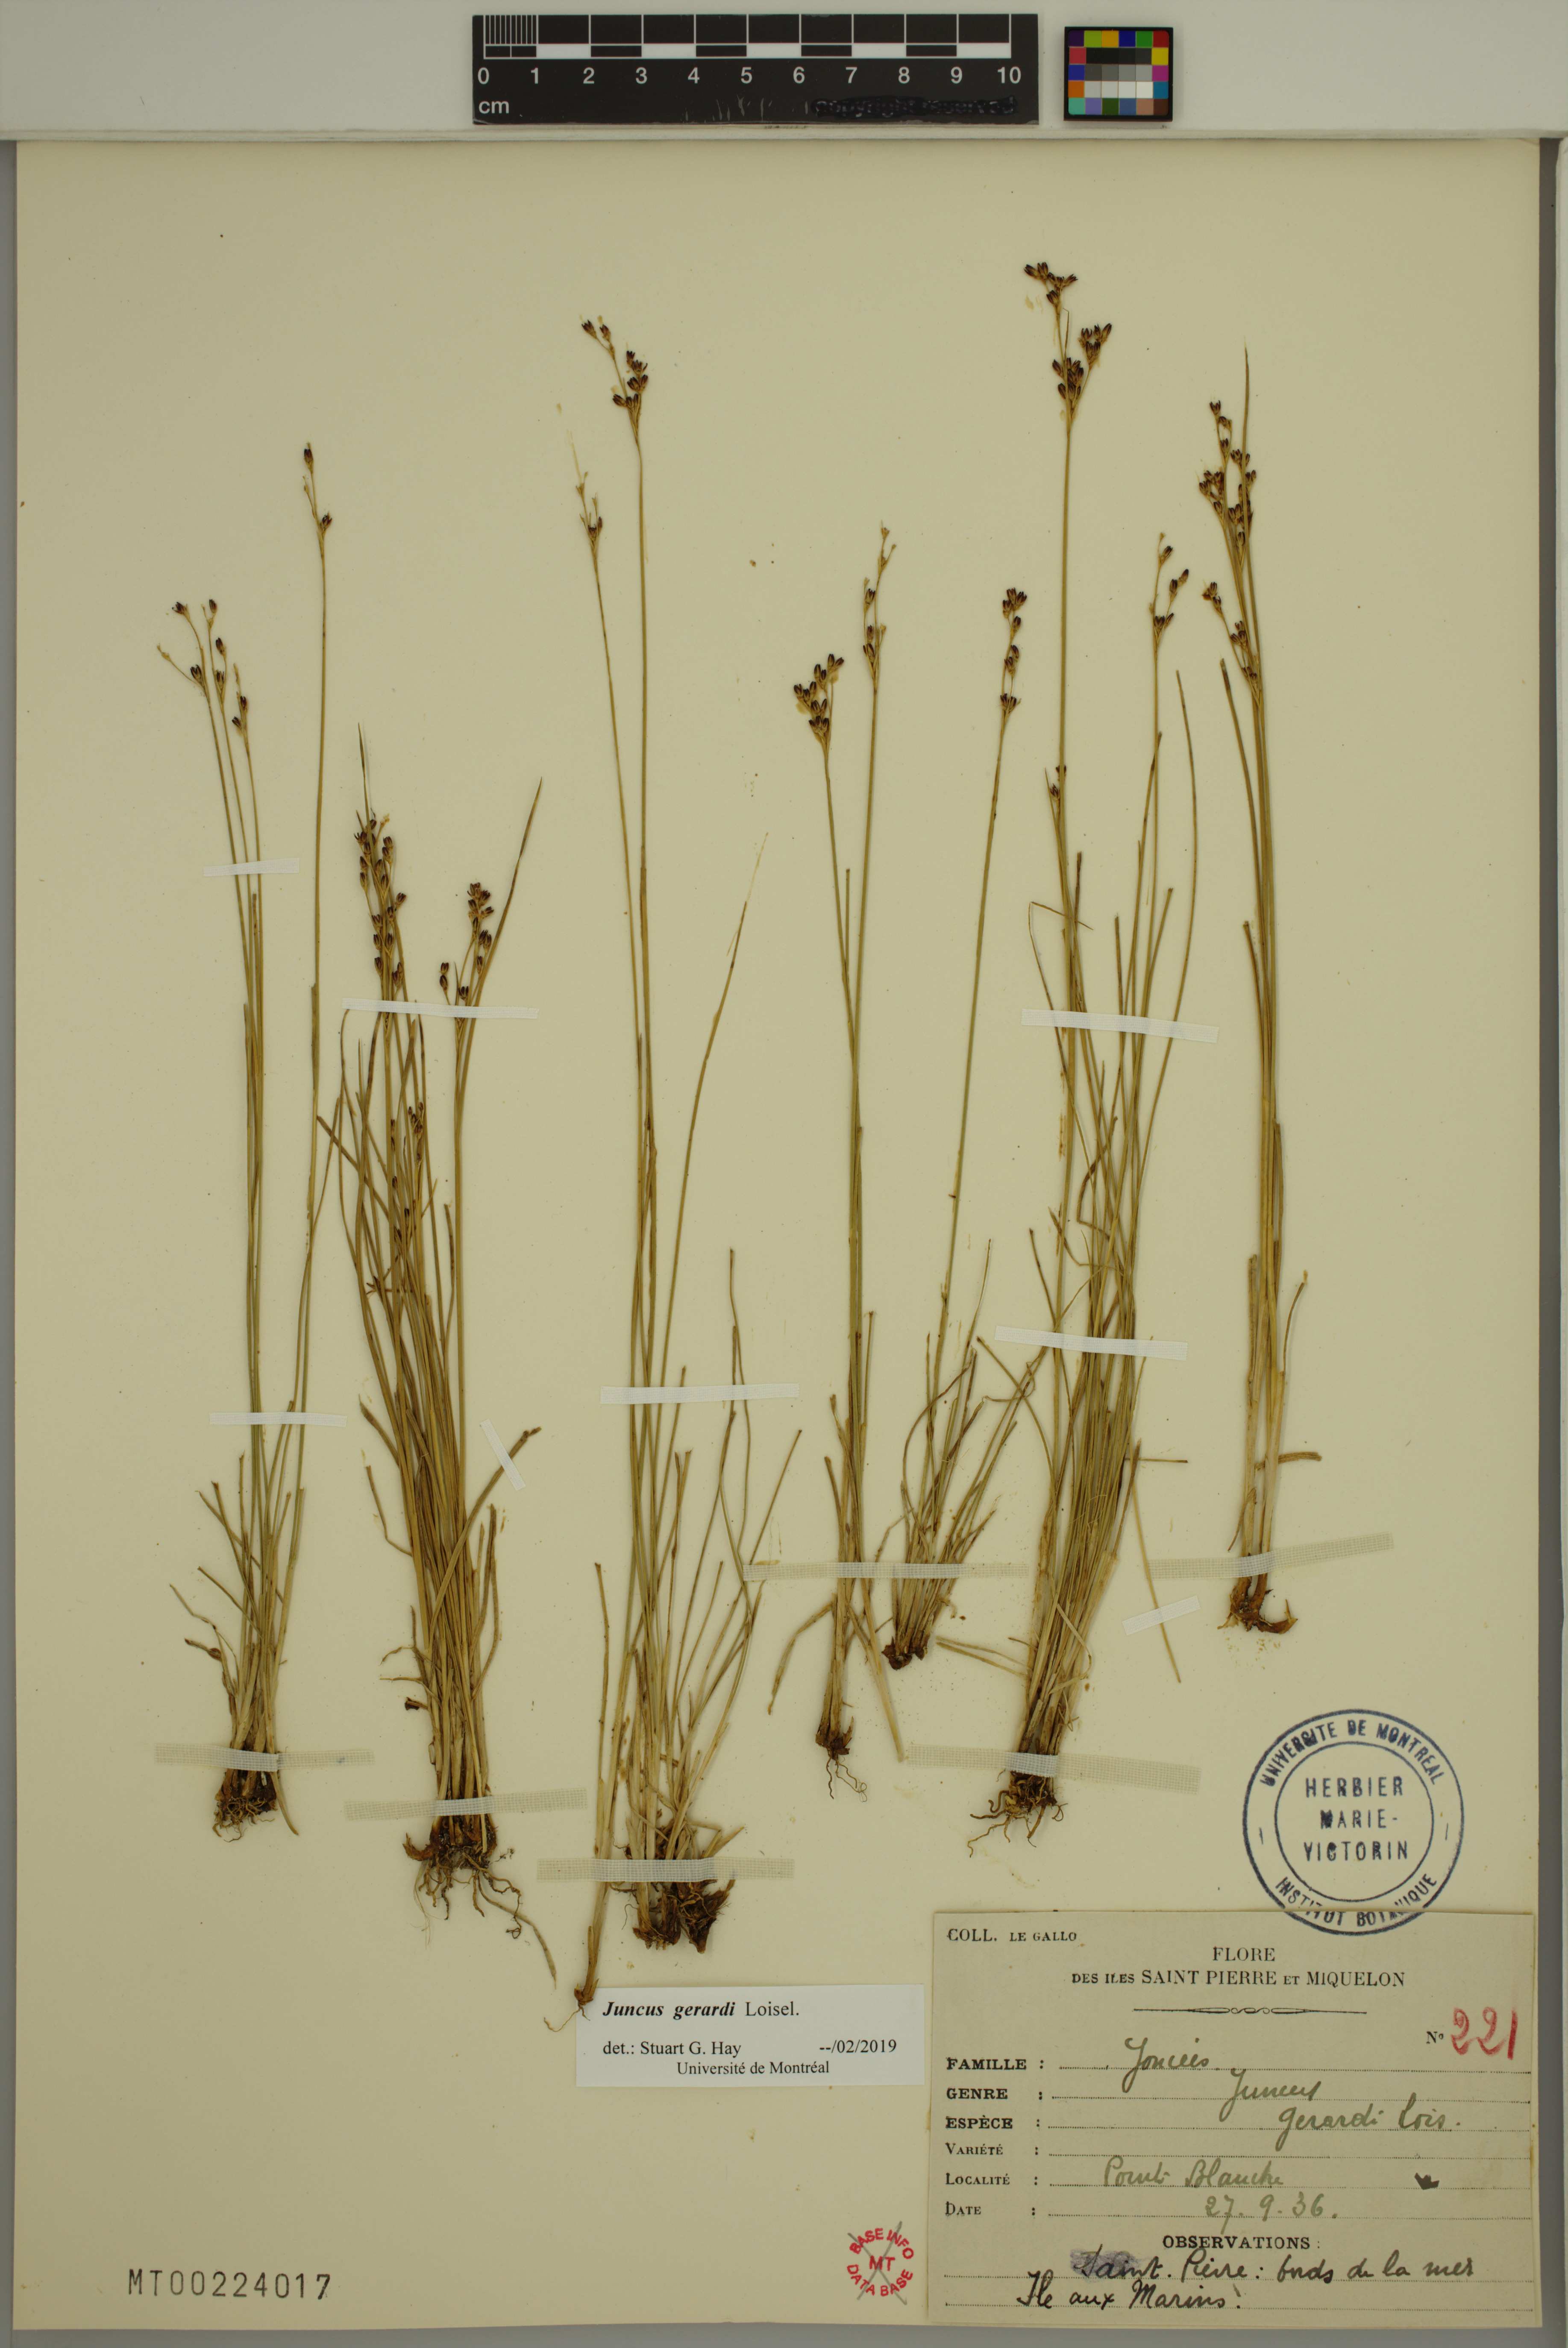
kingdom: Plantae
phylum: Tracheophyta
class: Liliopsida
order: Poales
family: Juncaceae
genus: Juncus
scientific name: Juncus gerardi
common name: Saltmarsh rush
